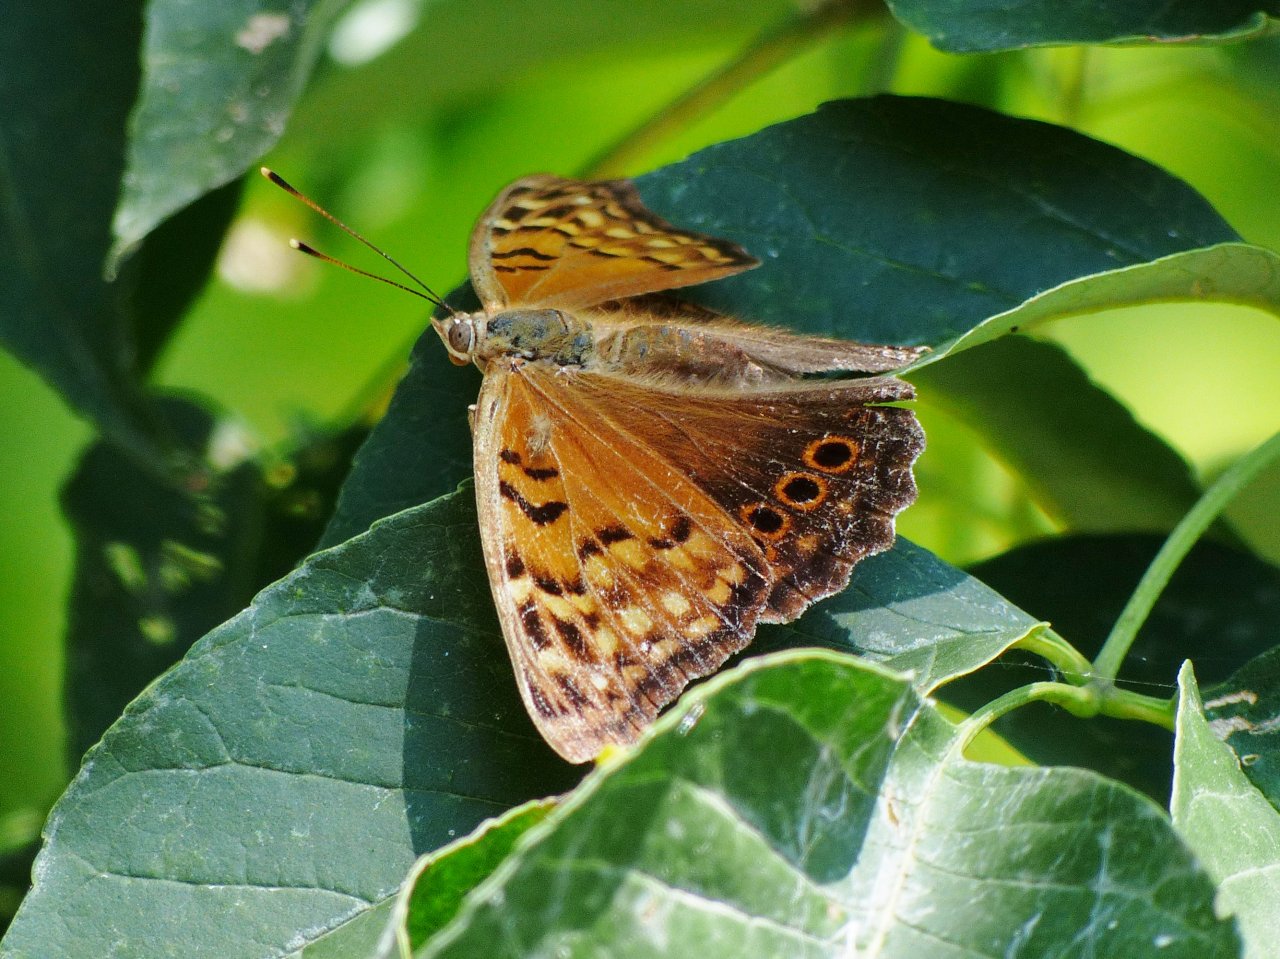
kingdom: Animalia
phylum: Arthropoda
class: Insecta
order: Lepidoptera
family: Nymphalidae
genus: Asterocampa
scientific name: Asterocampa clyton
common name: Tawny Emperor
